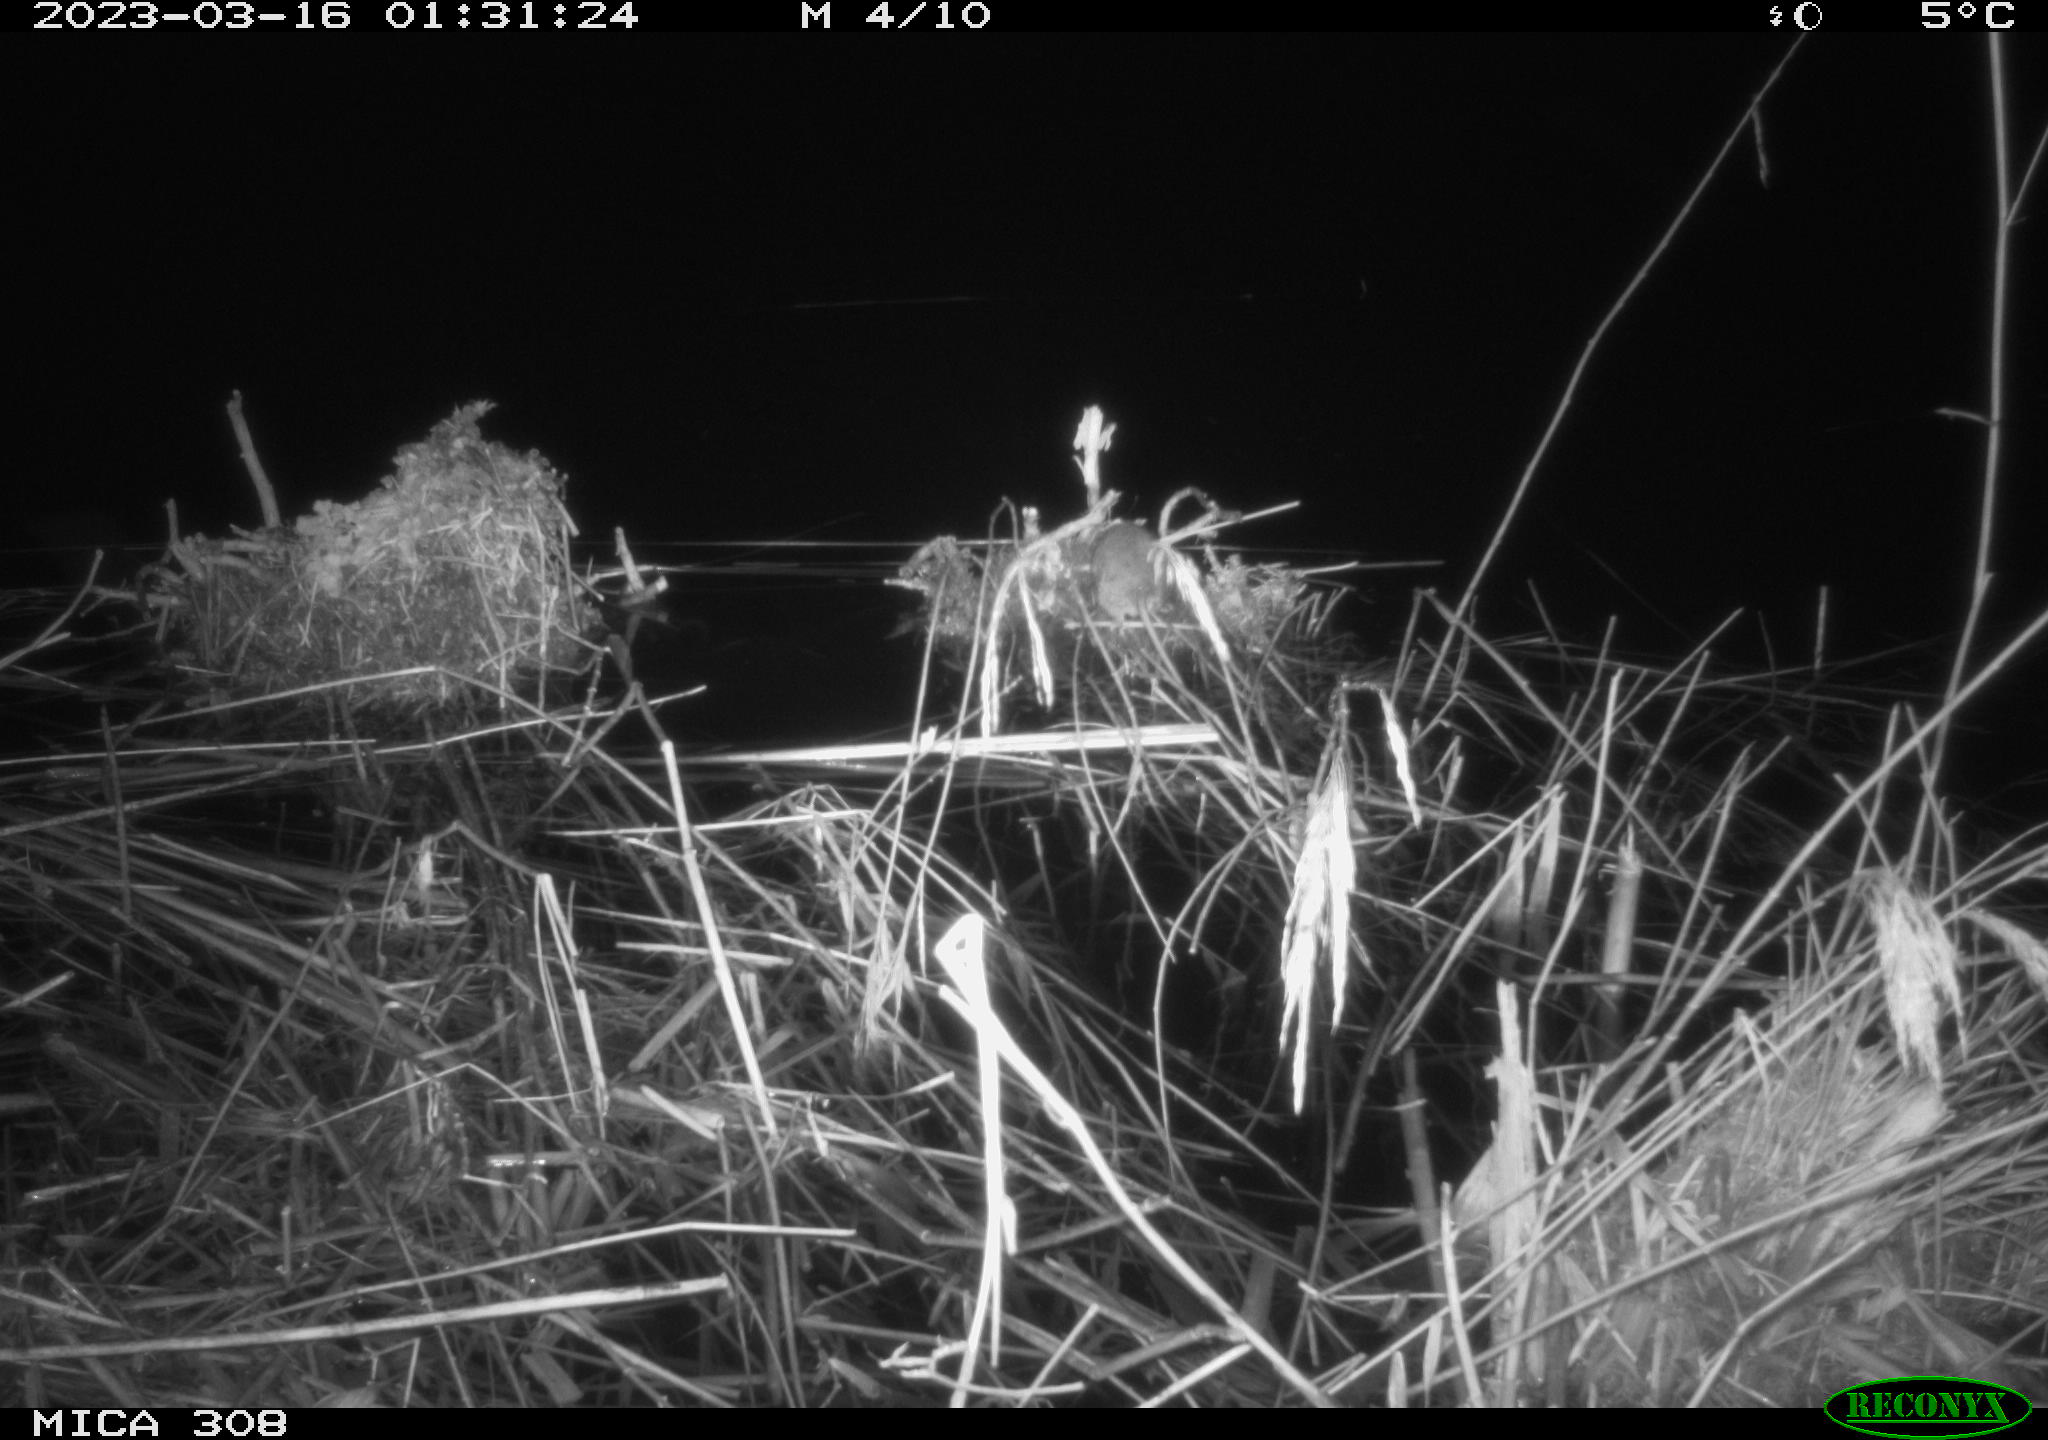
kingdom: Animalia
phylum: Chordata
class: Mammalia
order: Rodentia
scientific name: Rodentia
